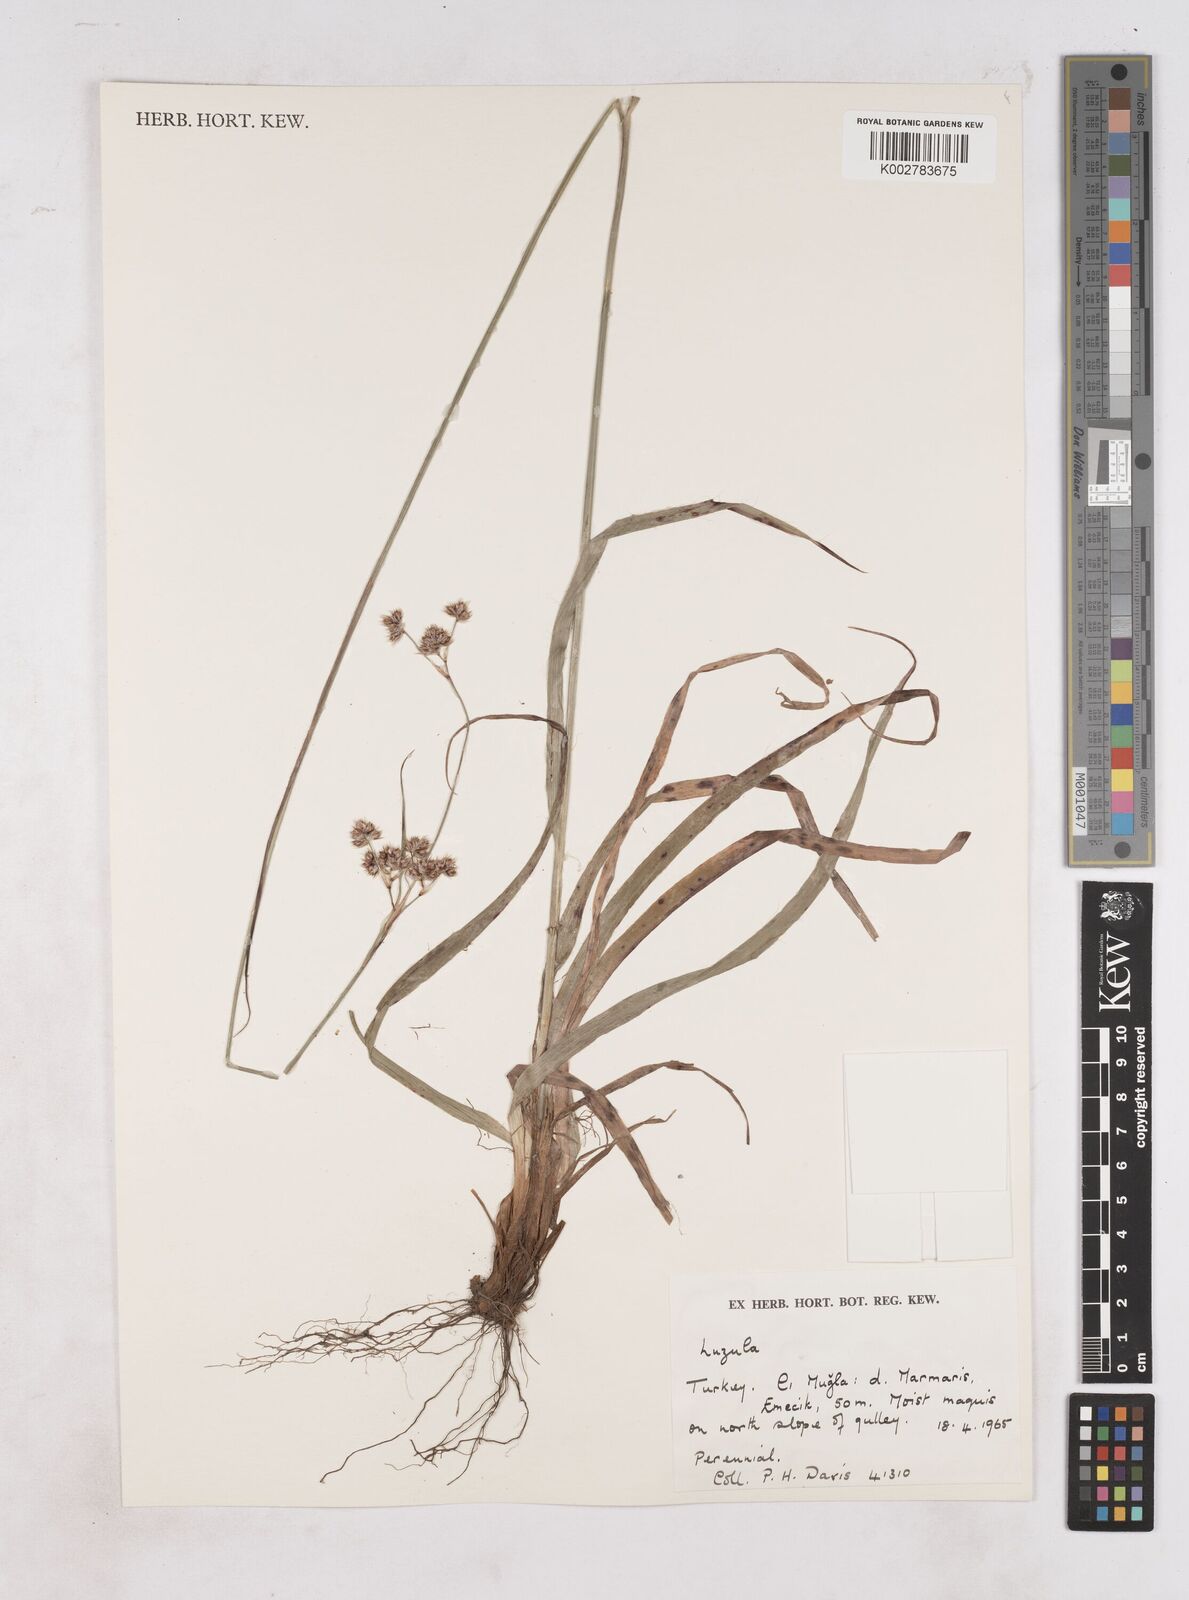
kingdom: Plantae
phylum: Tracheophyta
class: Liliopsida
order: Poales
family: Juncaceae
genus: Luzula
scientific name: Luzula
